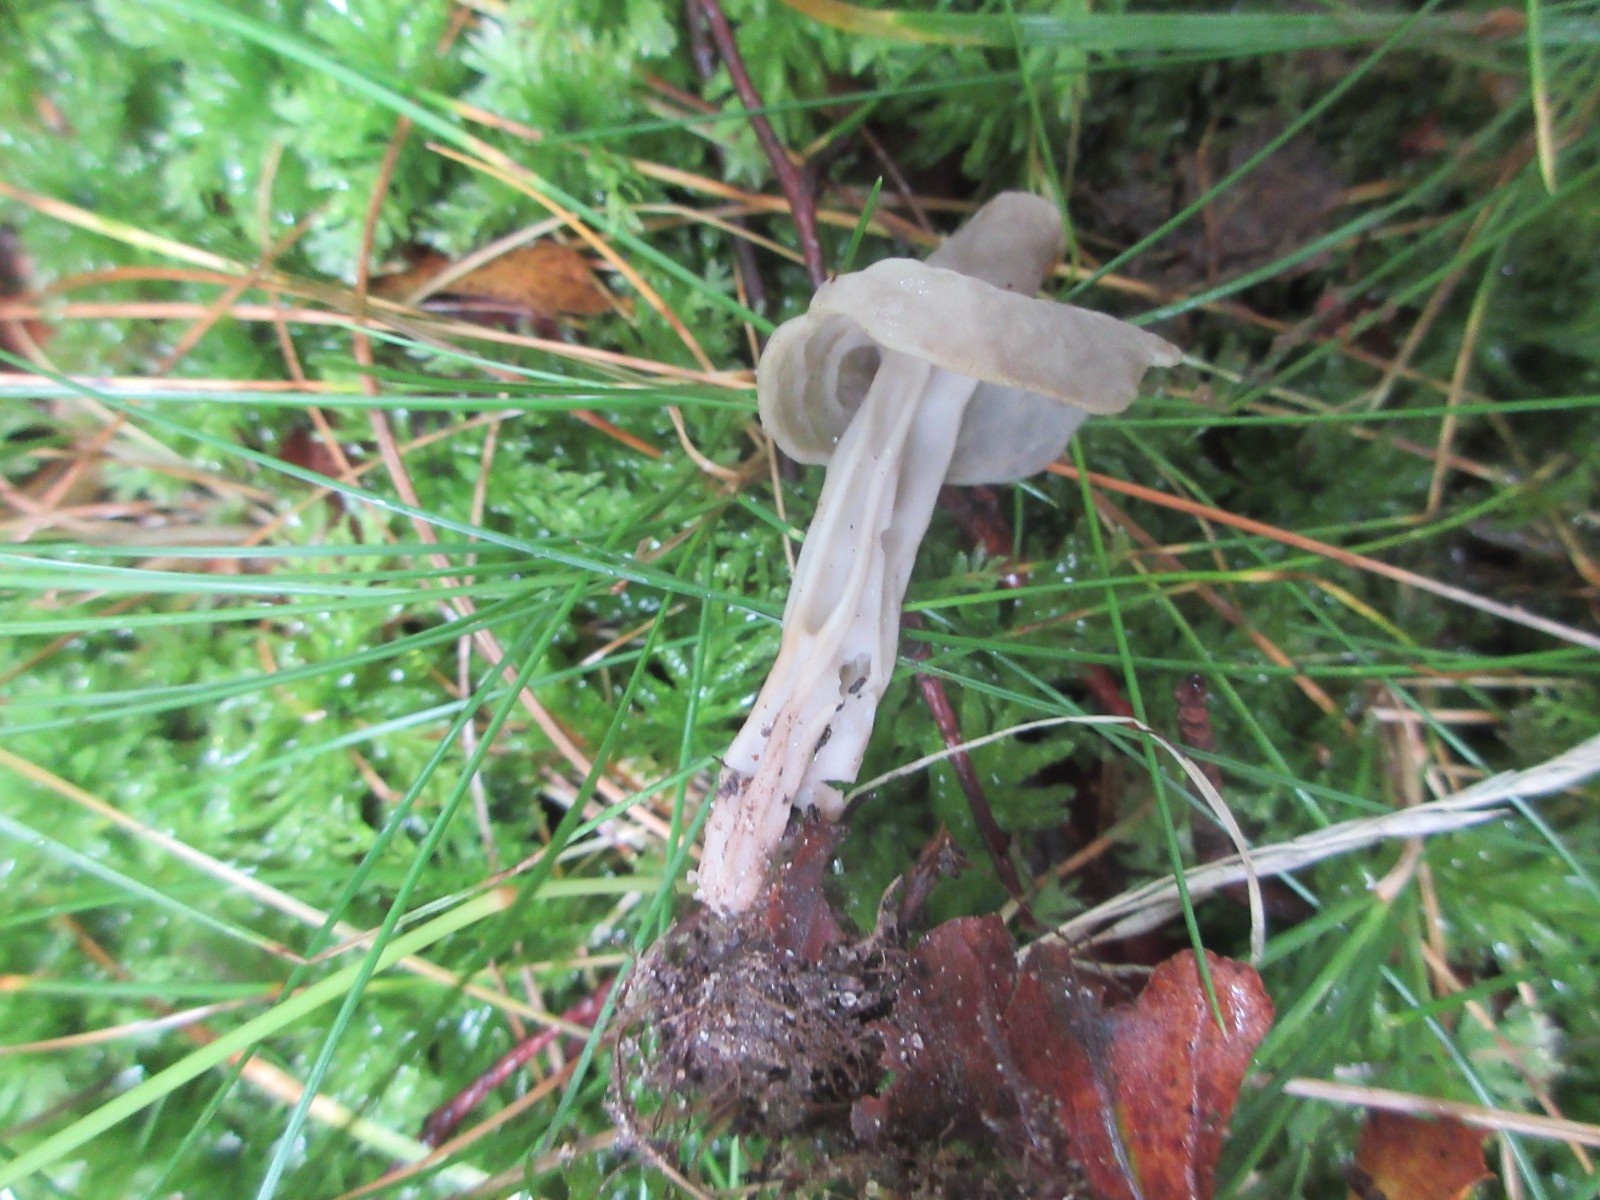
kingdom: Fungi
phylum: Ascomycota
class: Pezizomycetes
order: Pezizales
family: Helvellaceae
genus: Helvella
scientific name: Helvella lacunosa
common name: grubet foldhat
